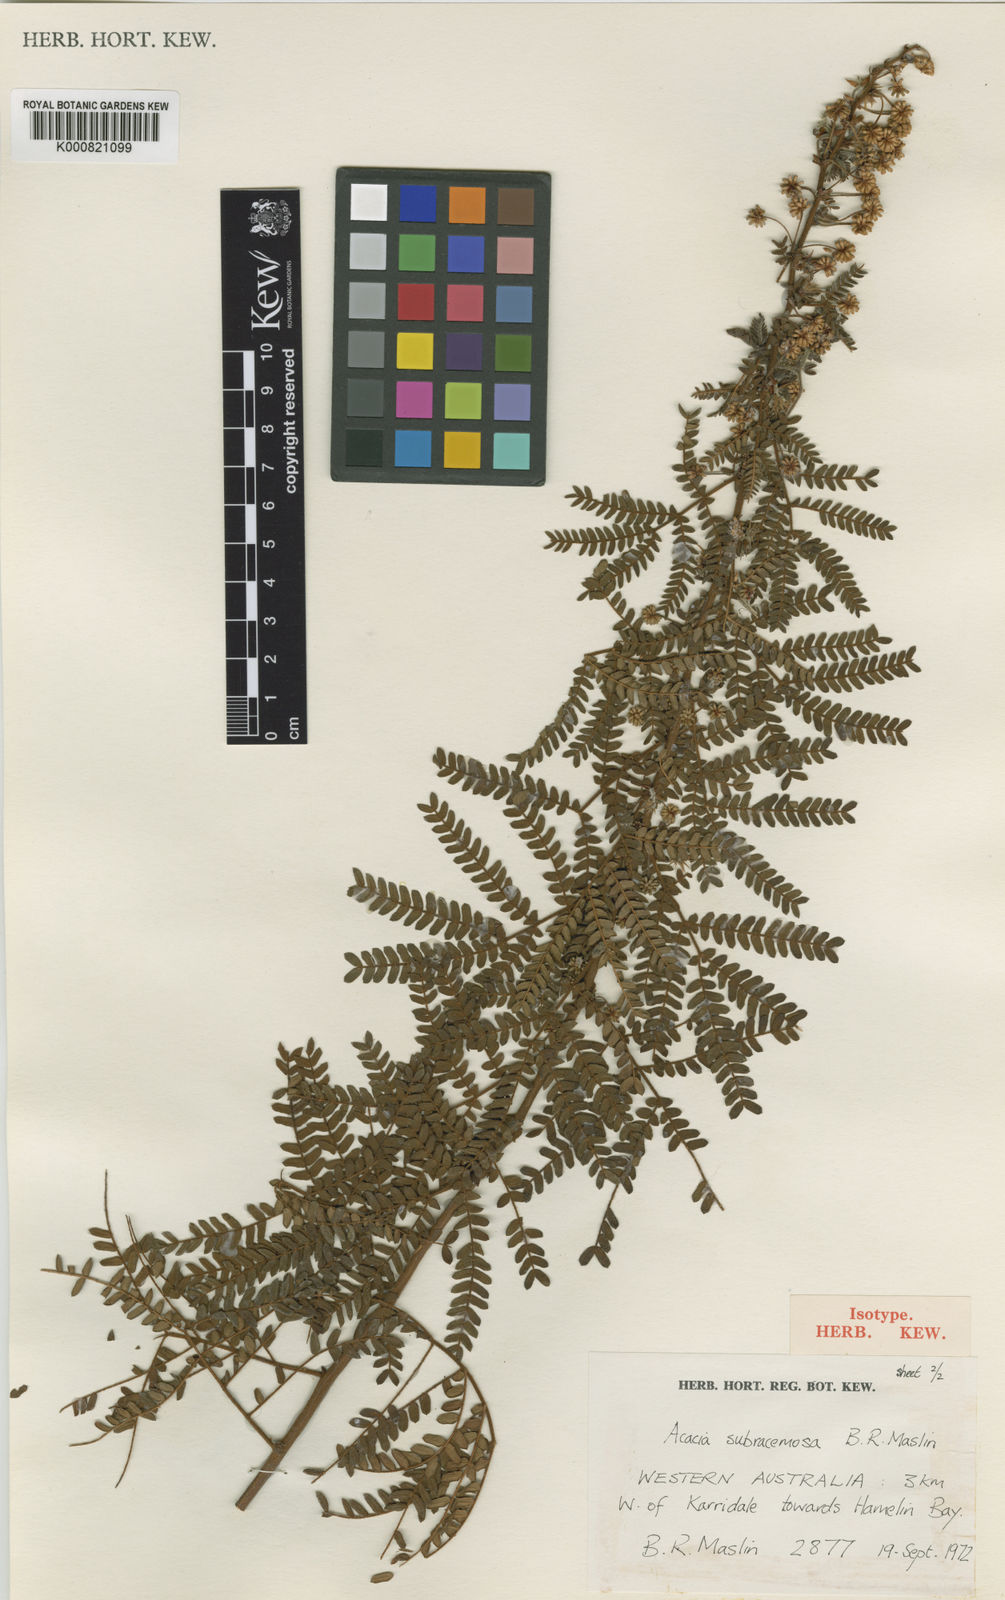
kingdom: Plantae
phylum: Tracheophyta
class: Magnoliopsida
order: Fabales
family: Fabaceae
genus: Acacia
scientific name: Acacia subracemosa
